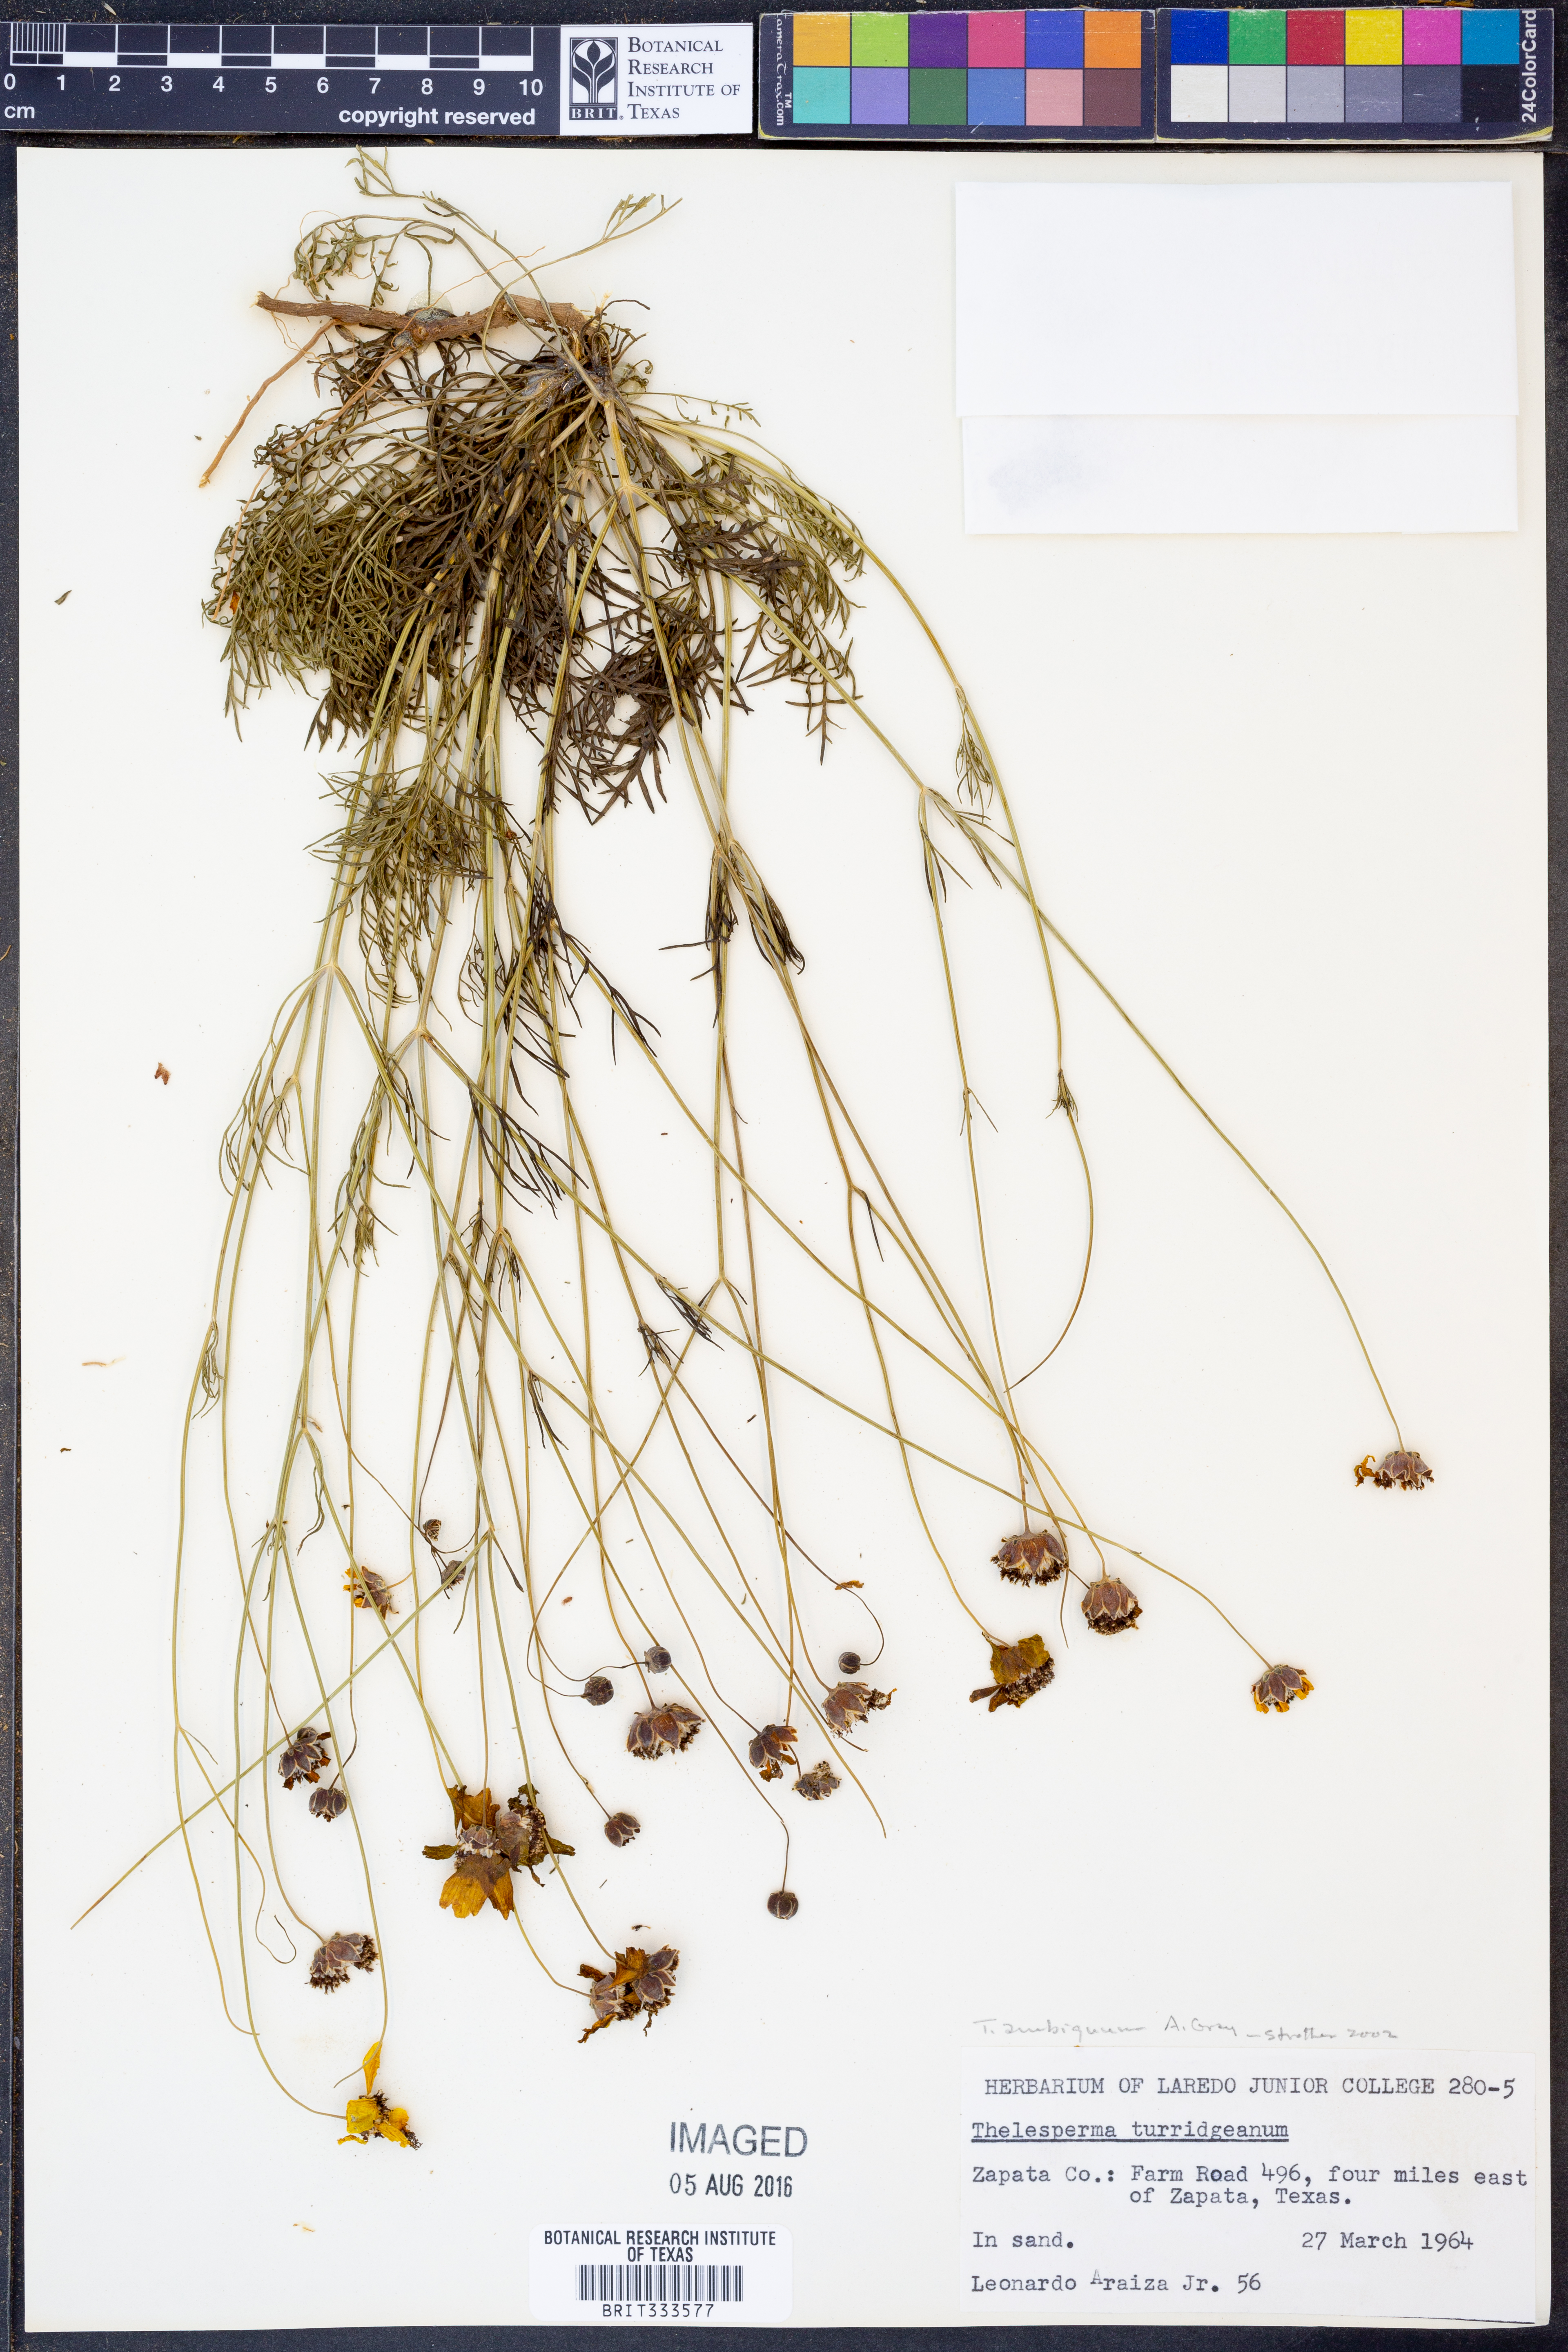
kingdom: Plantae
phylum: Tracheophyta
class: Magnoliopsida
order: Asterales
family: Asteraceae
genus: Thelesperma
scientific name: Thelesperma ambiguum
